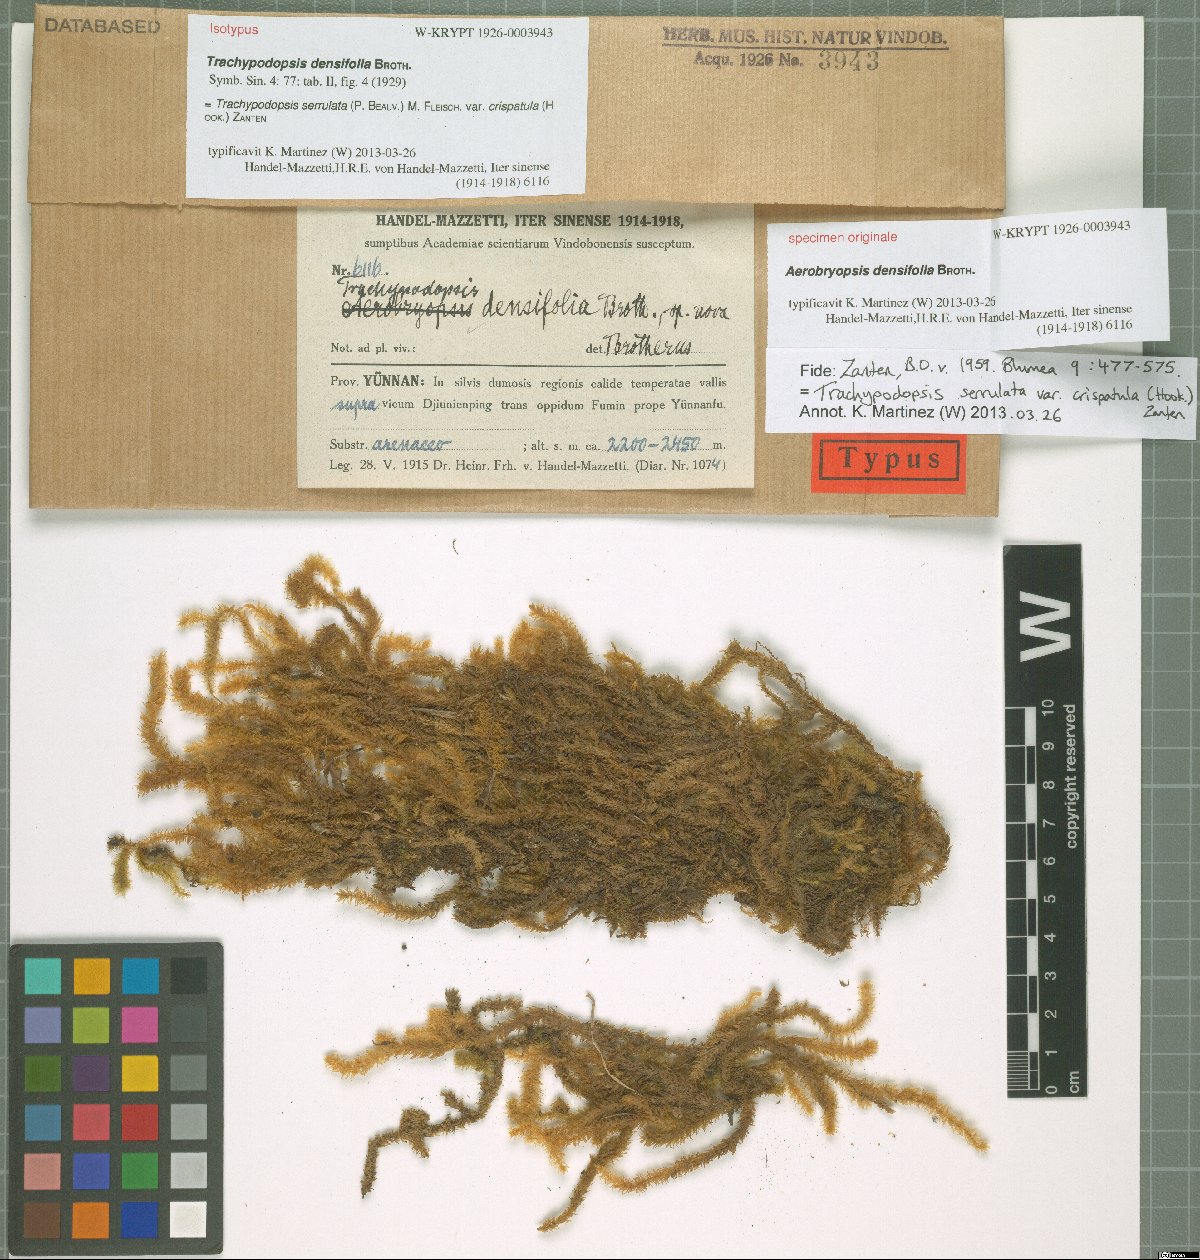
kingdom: Plantae
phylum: Bryophyta
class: Bryopsida
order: Hypnales
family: Meteoriaceae
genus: Trachypodopsis
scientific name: Trachypodopsis serrulata
